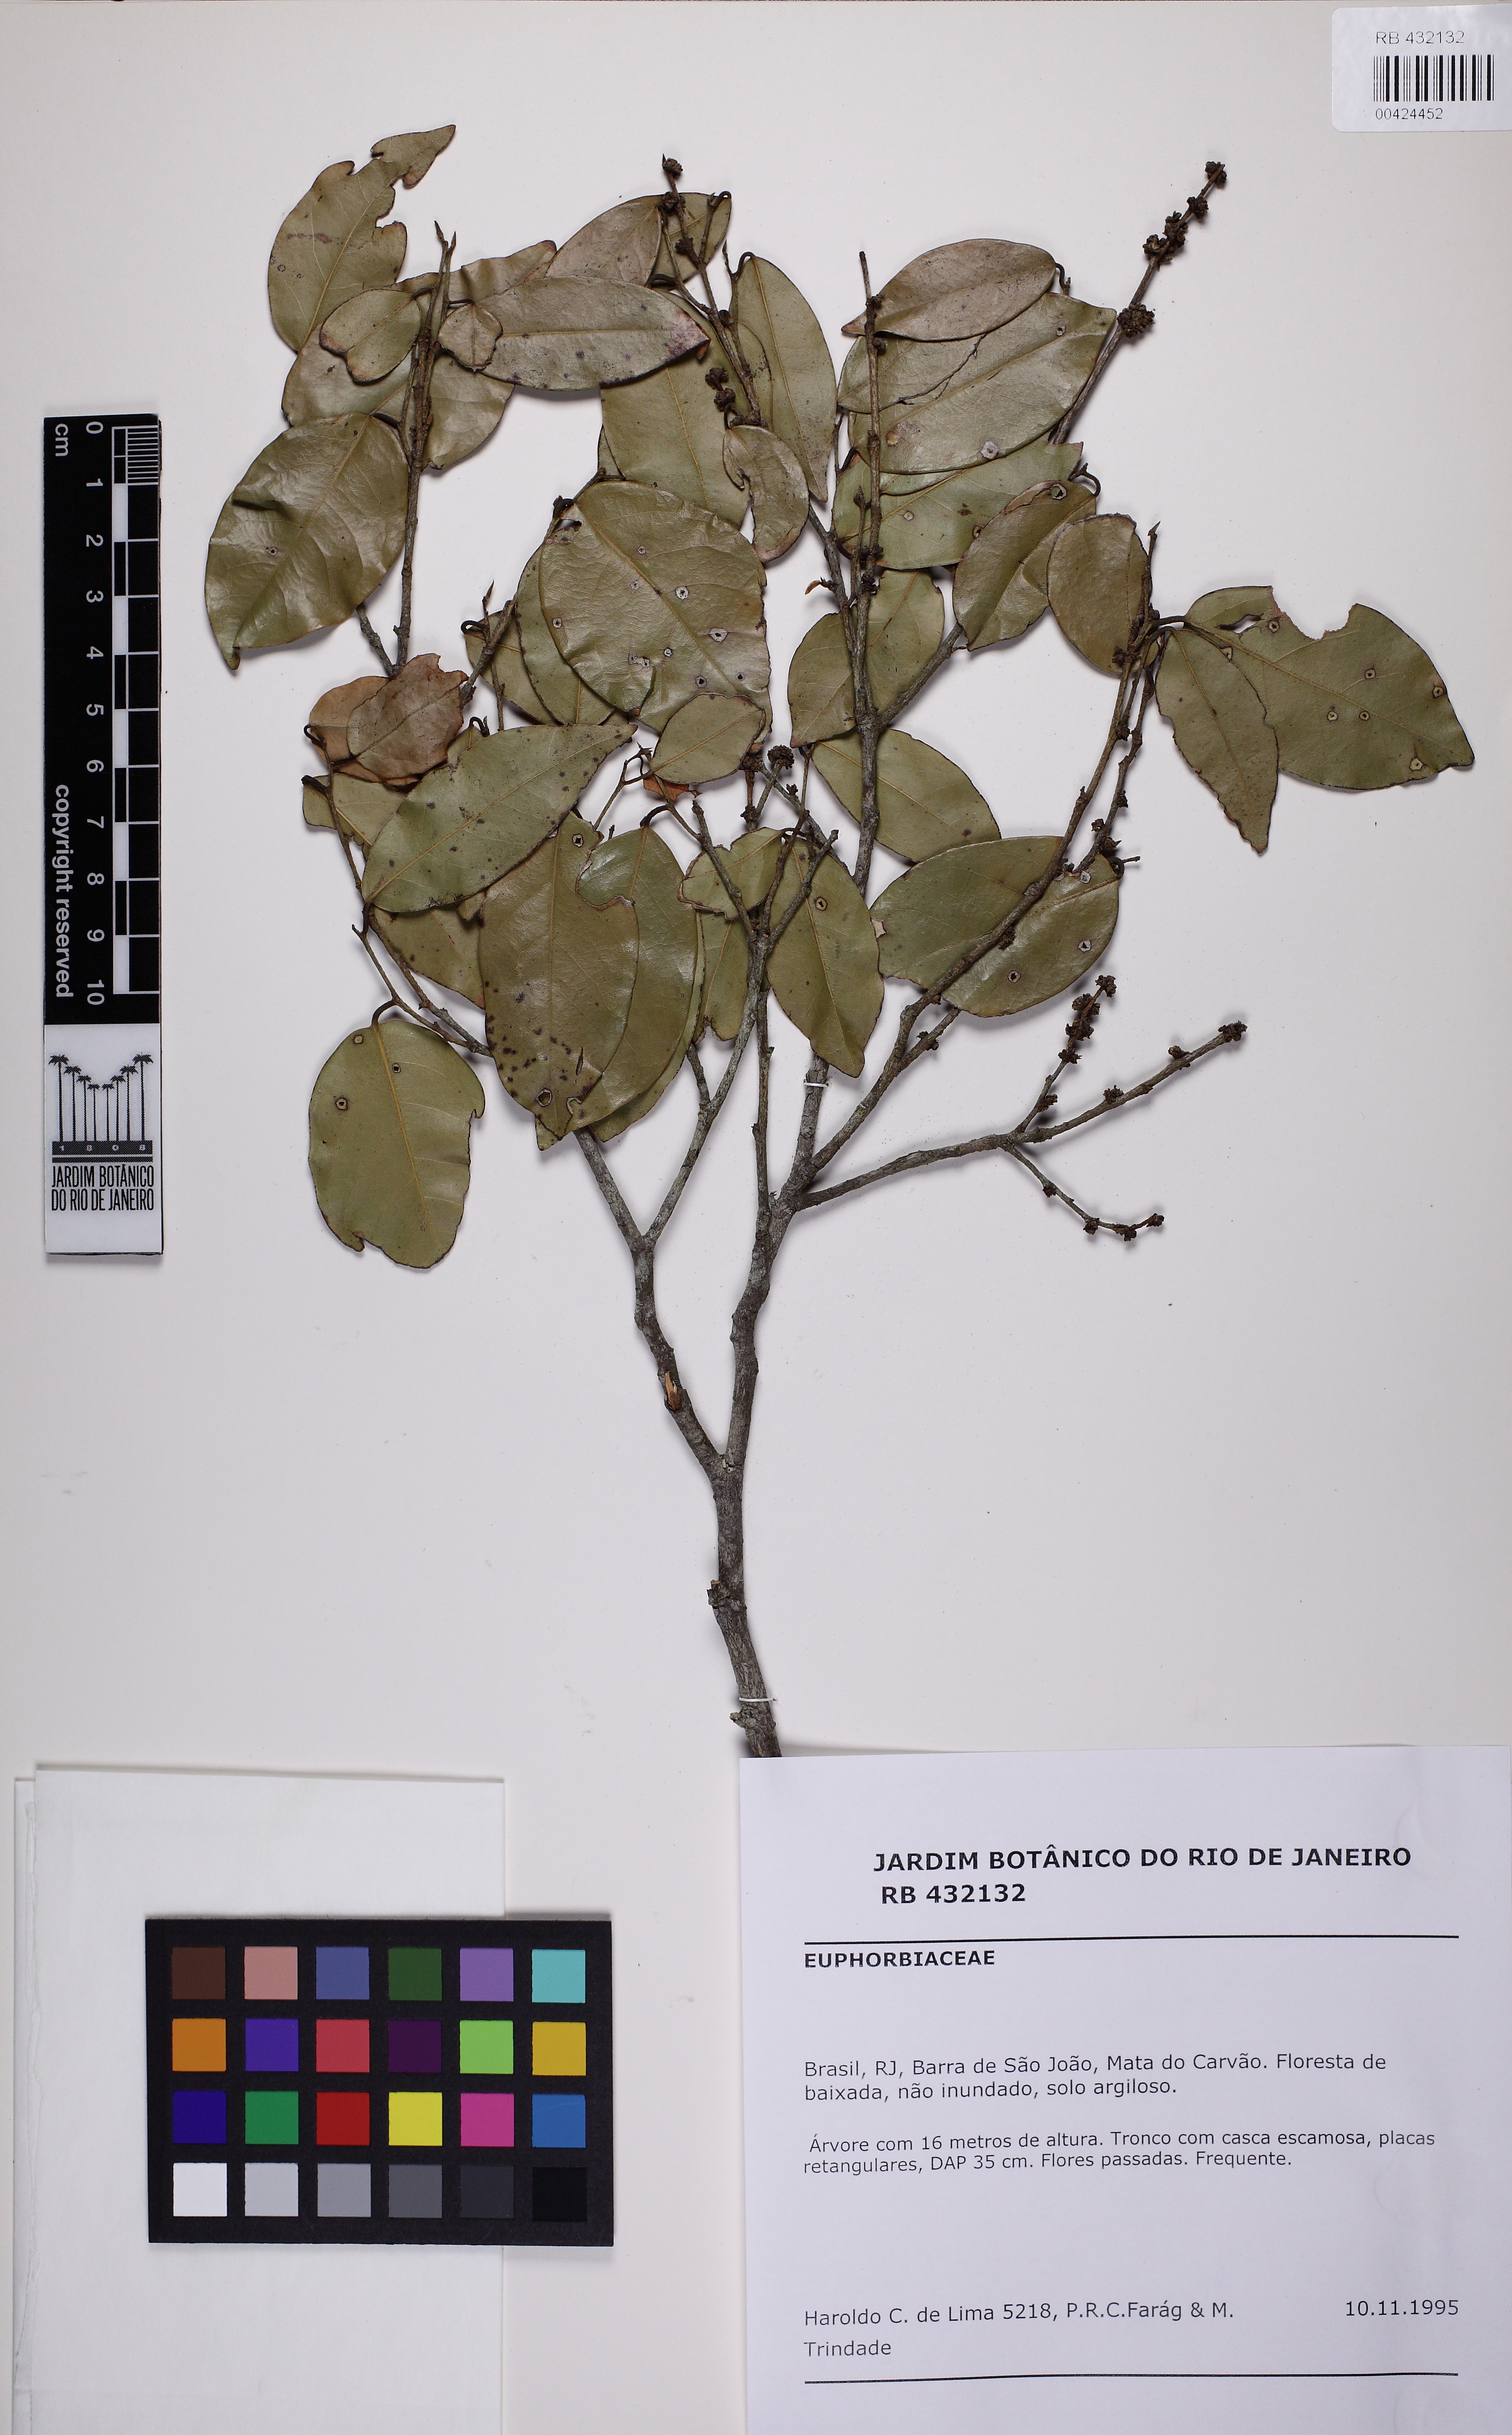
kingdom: Plantae
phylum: Tracheophyta
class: Magnoliopsida
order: Malpighiales
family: Euphorbiaceae
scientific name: Euphorbiaceae
